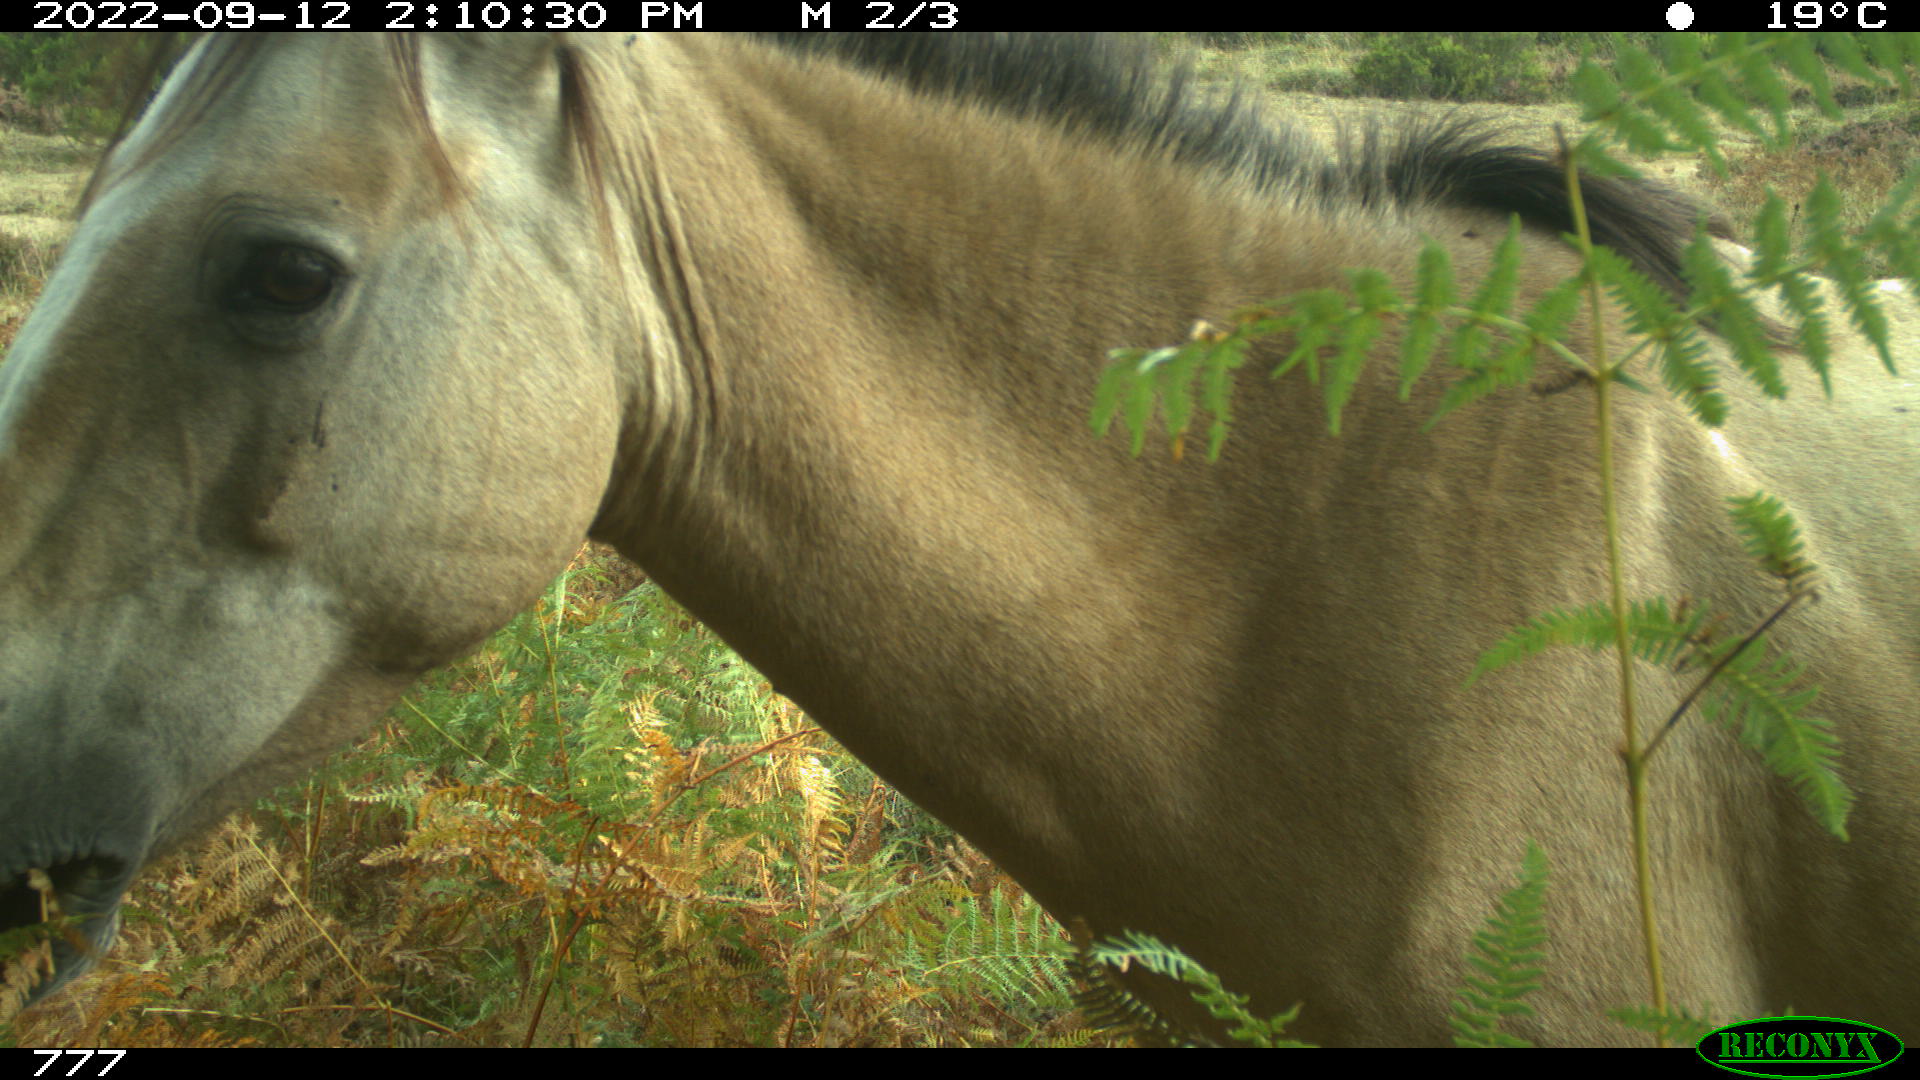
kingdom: Animalia
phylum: Chordata
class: Mammalia
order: Perissodactyla
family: Equidae
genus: Equus
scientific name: Equus caballus
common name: Horse
